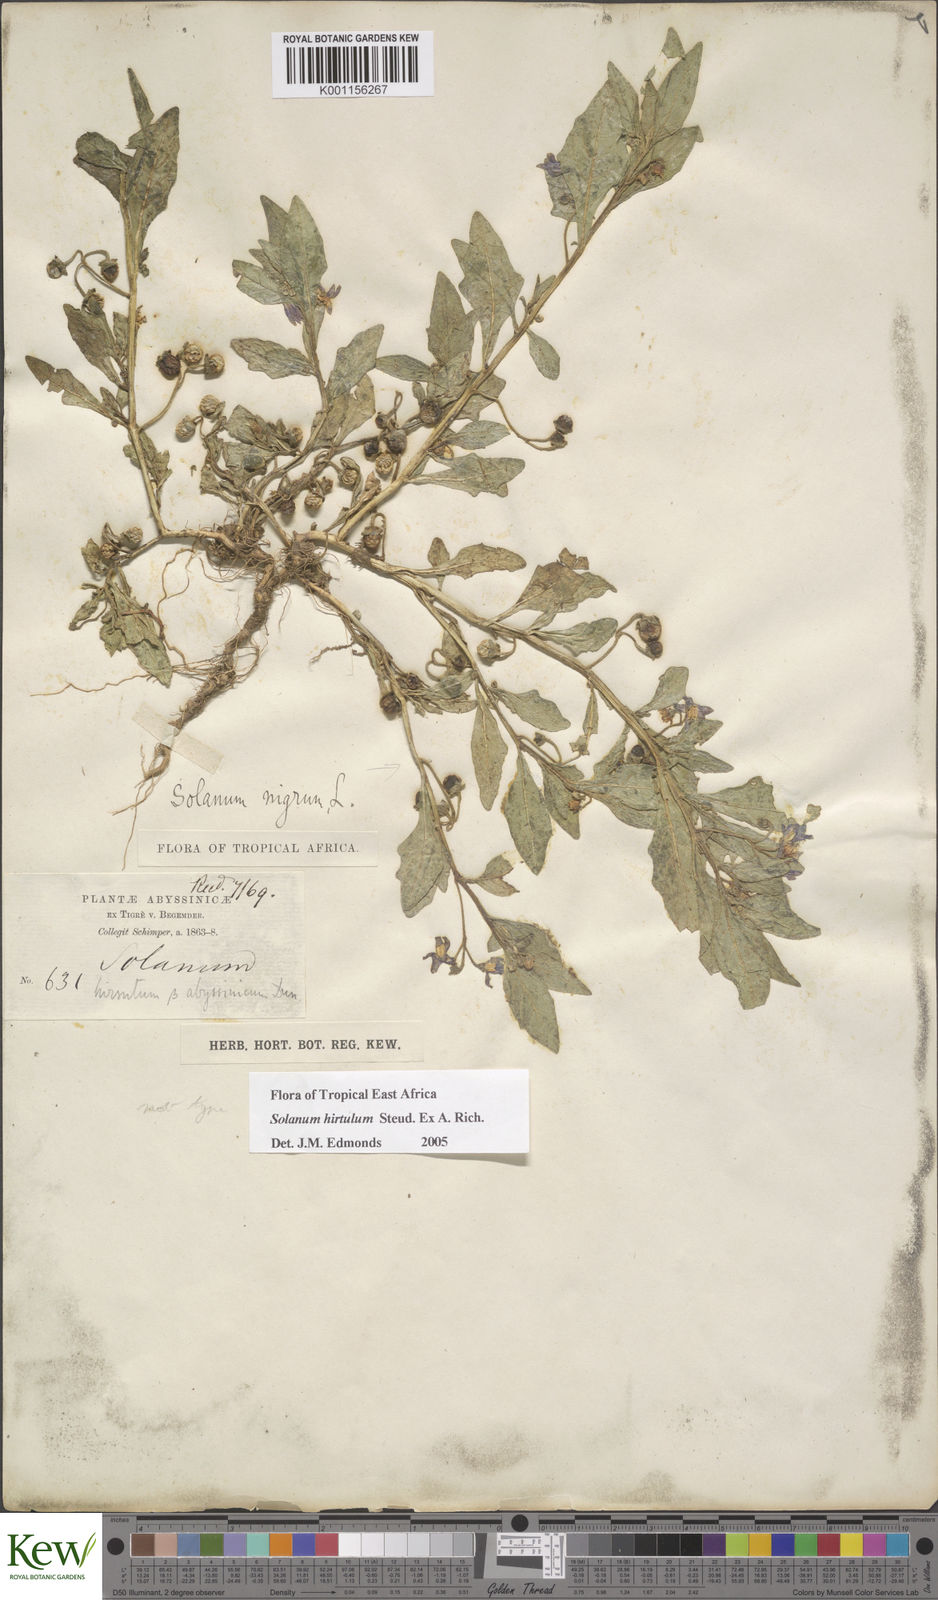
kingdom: Plantae
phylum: Tracheophyta
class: Magnoliopsida
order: Solanales
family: Solanaceae
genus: Solanum
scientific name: Solanum hirtulum
